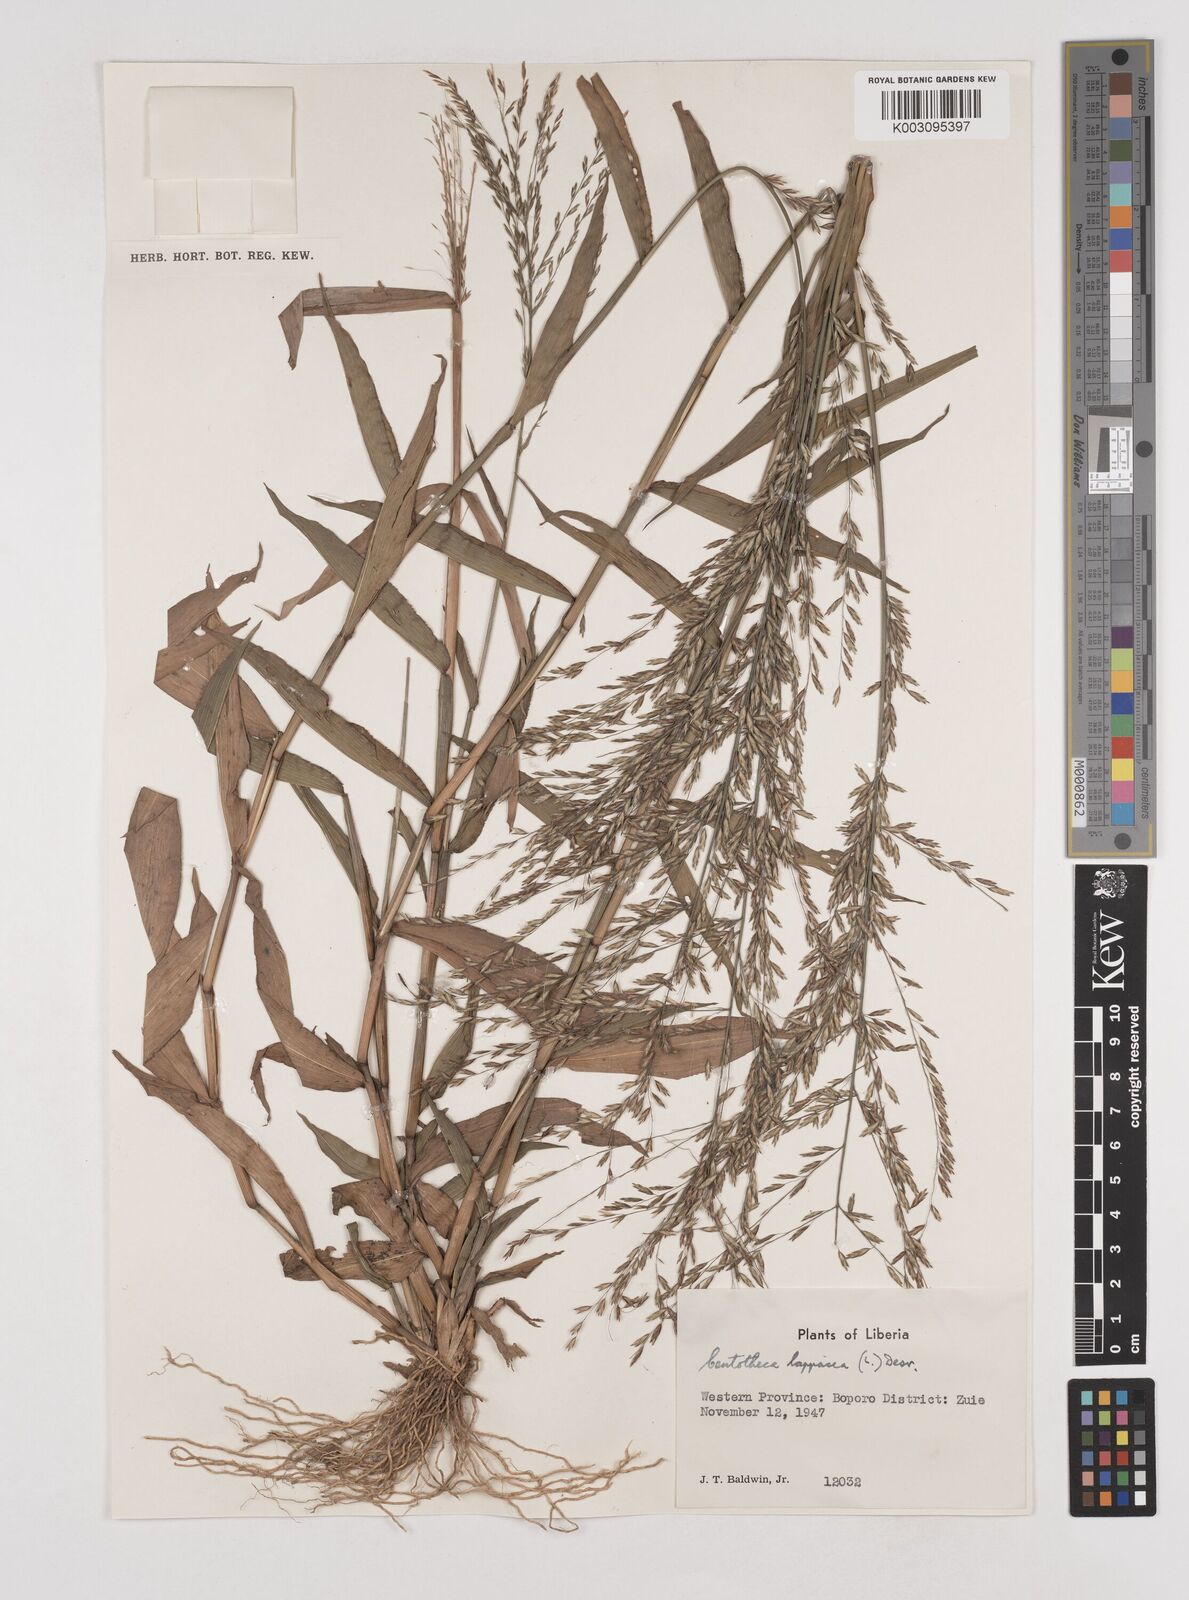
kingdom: Plantae
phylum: Tracheophyta
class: Liliopsida
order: Poales
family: Poaceae
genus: Centotheca
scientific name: Centotheca lappacea
